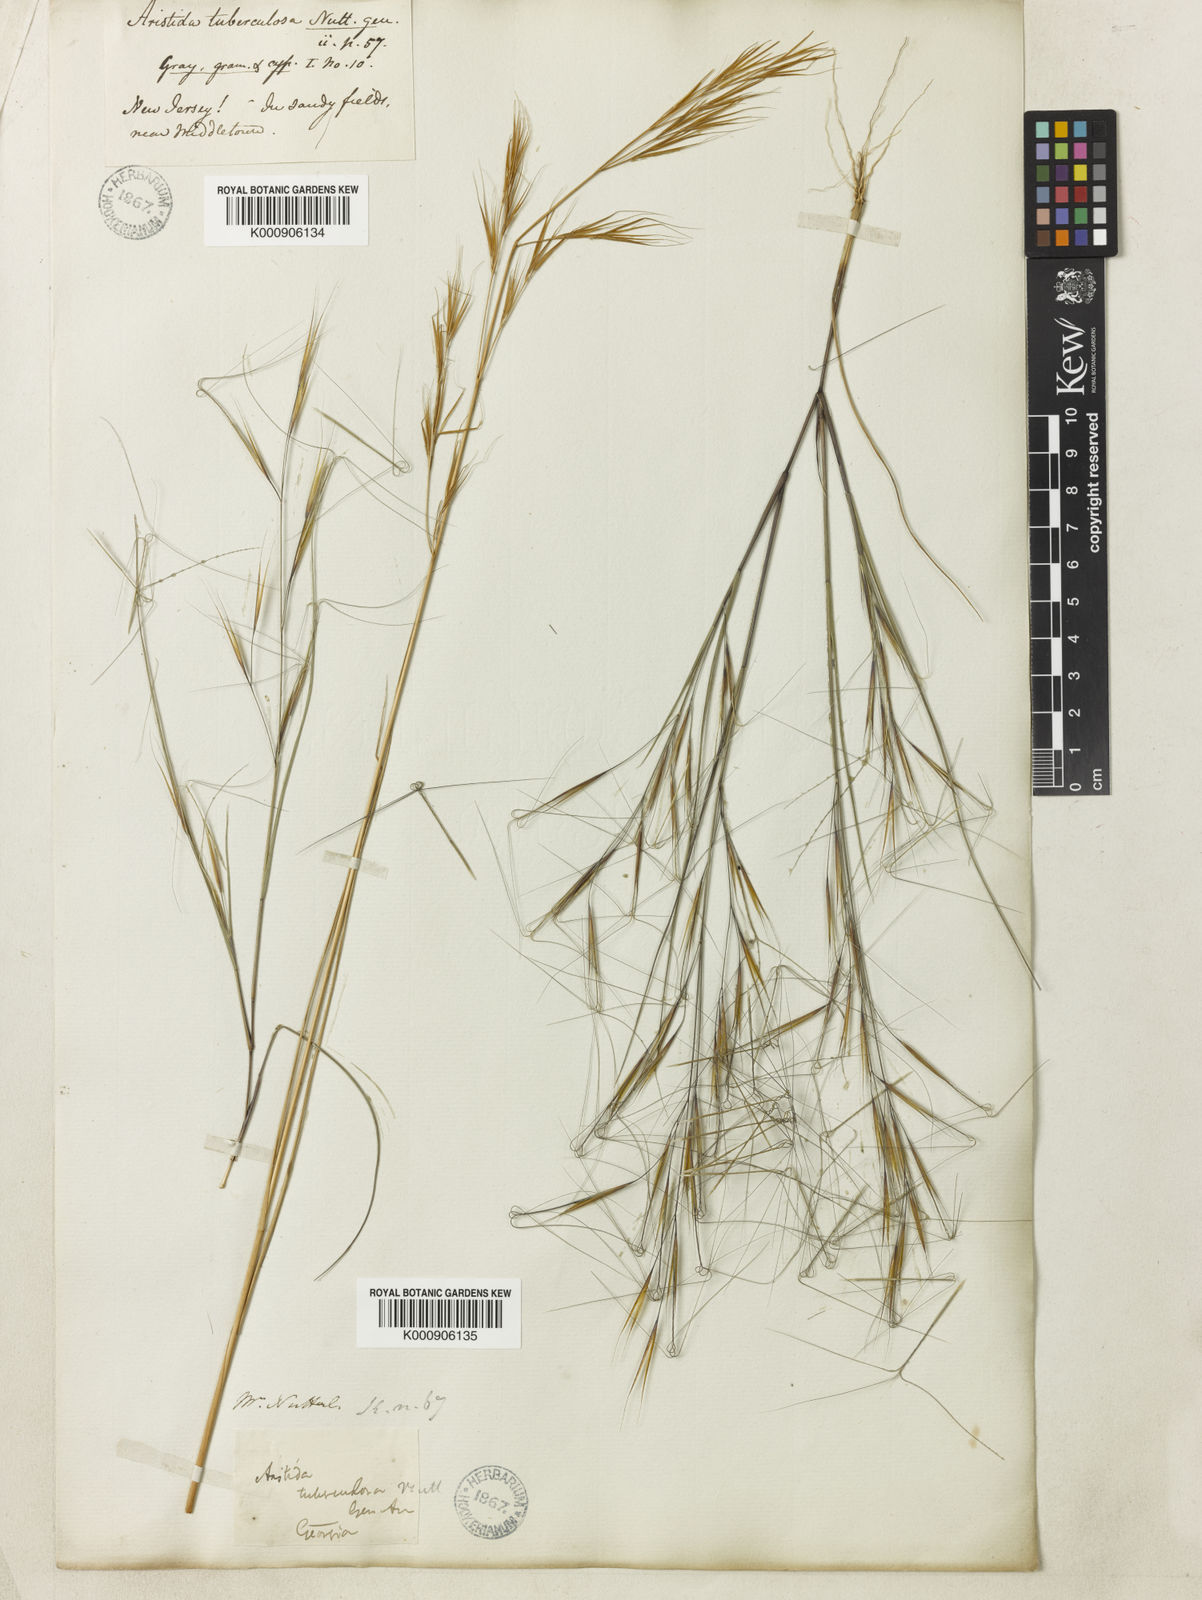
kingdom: Plantae
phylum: Tracheophyta
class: Liliopsida
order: Poales
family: Poaceae
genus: Aristida
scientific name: Aristida tuberculosa
